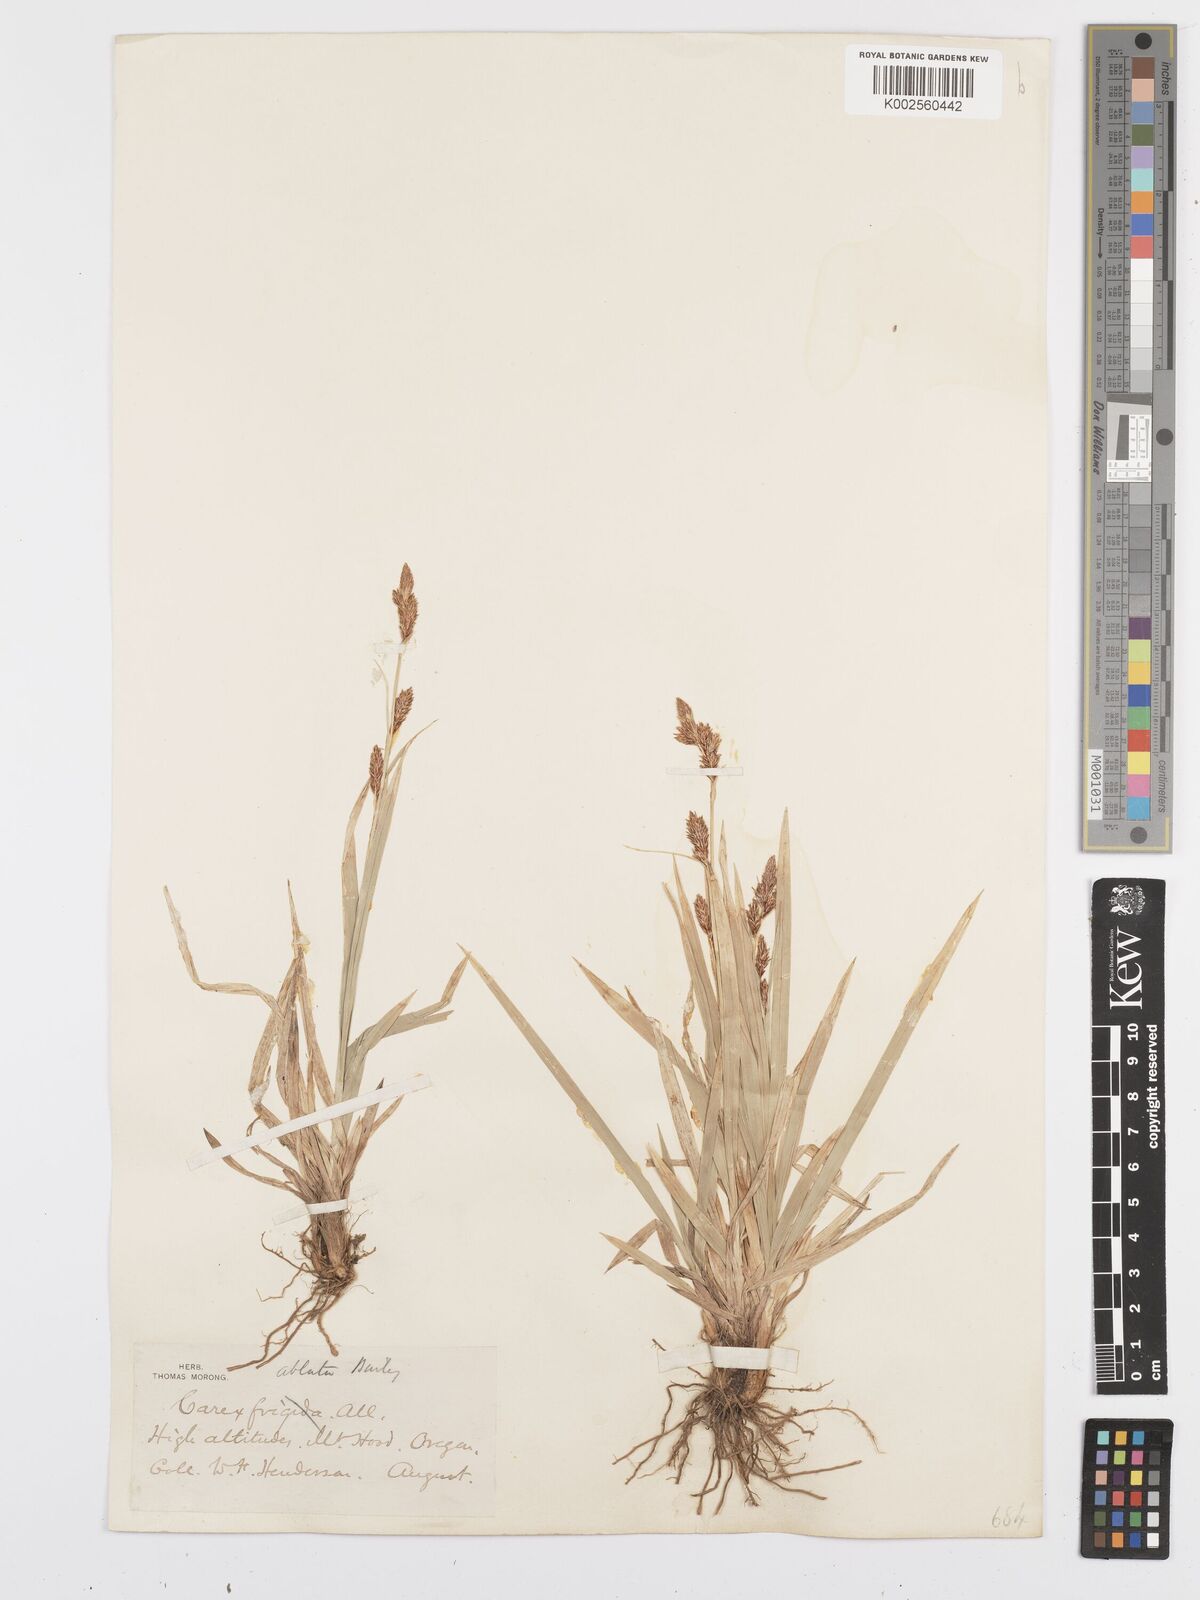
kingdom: Plantae
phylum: Tracheophyta
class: Liliopsida
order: Poales
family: Cyperaceae
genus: Carex
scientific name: Carex luzulina
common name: Spring sedge
